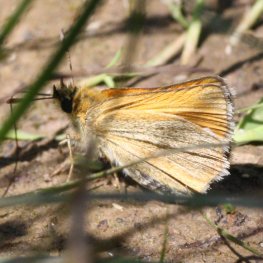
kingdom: Animalia
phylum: Arthropoda
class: Insecta
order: Lepidoptera
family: Hesperiidae
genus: Thymelicus
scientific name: Thymelicus lineola
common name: European Skipper
